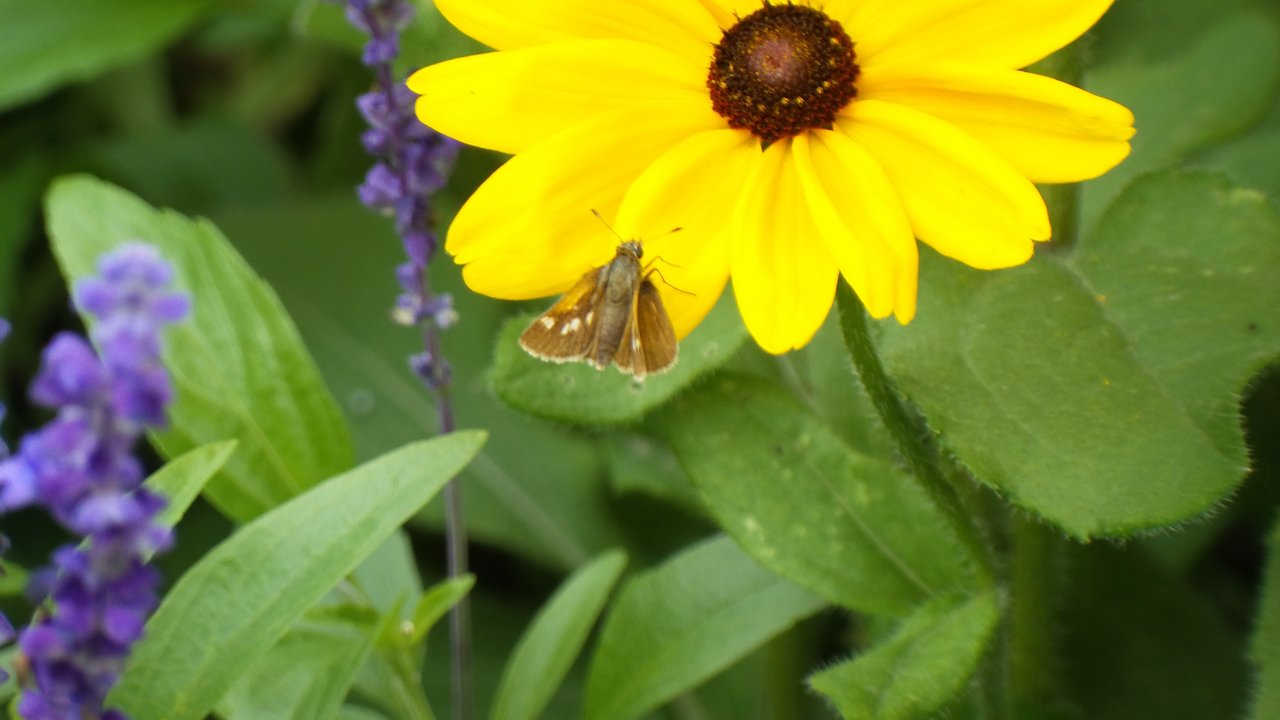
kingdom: Animalia
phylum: Arthropoda
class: Insecta
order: Lepidoptera
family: Hesperiidae
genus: Polites
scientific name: Polites themistocles
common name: Tawny-edged Skipper
